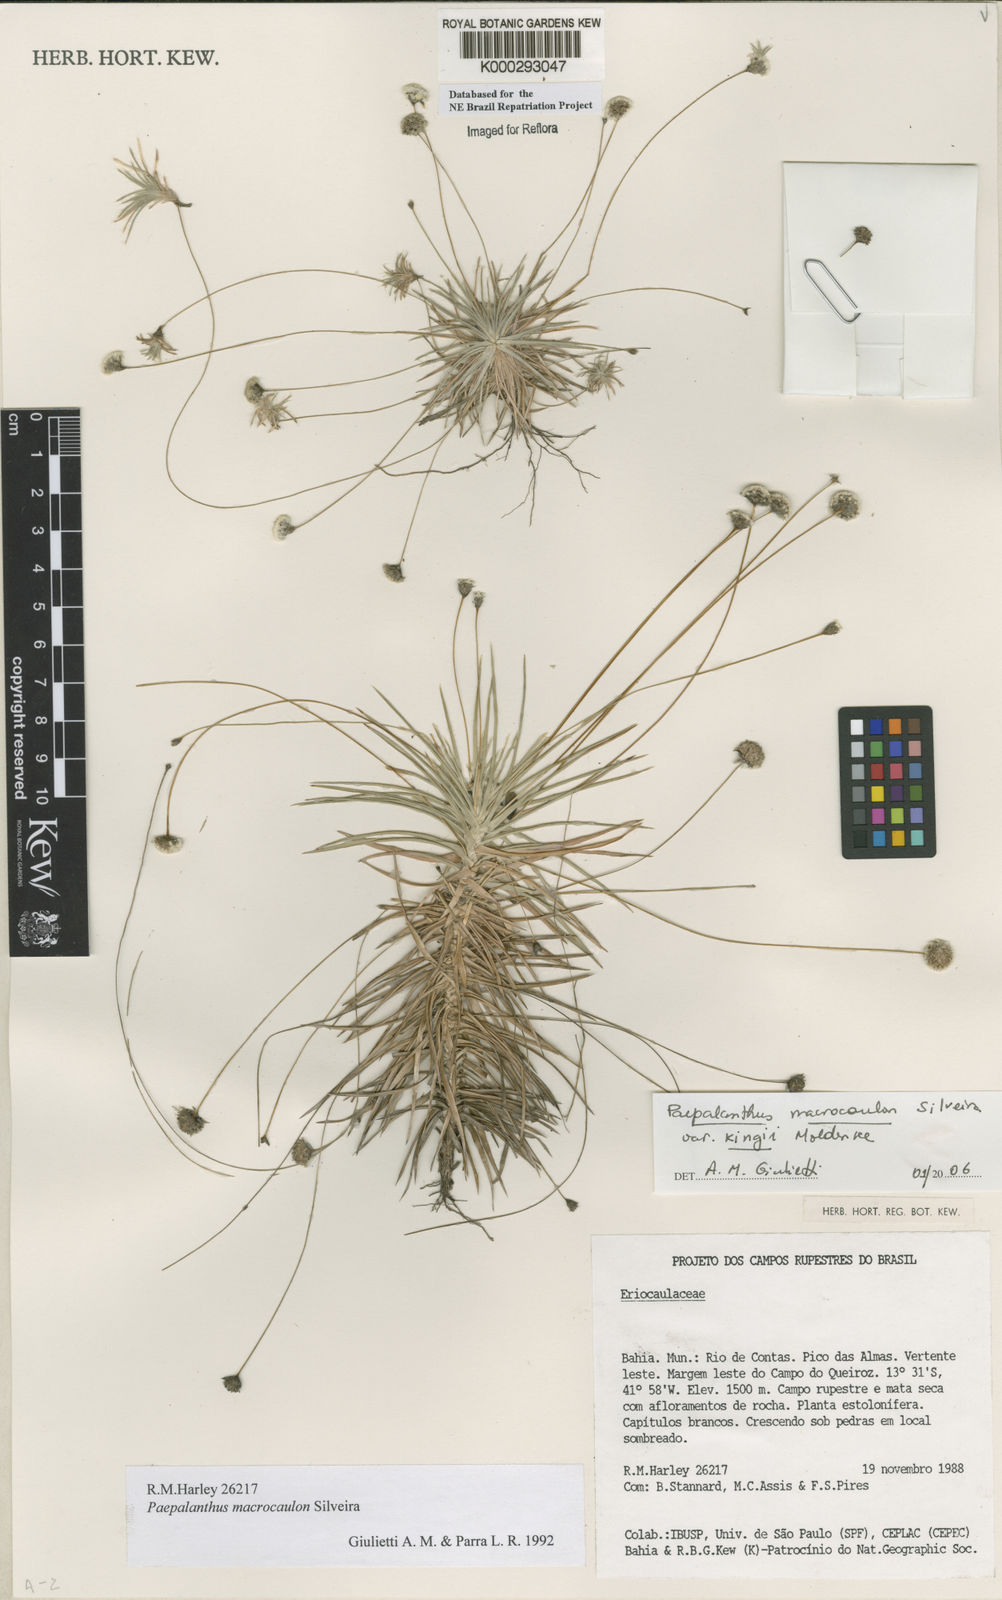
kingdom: Plantae
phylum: Tracheophyta
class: Liliopsida
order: Poales
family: Eriocaulaceae
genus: Paepalanthus
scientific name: Paepalanthus macrocaulon
